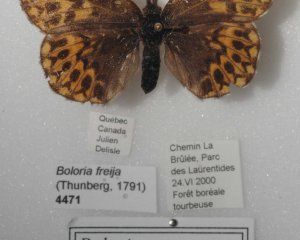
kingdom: Animalia
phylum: Arthropoda
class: Insecta
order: Lepidoptera
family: Nymphalidae
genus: Boloria
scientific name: Boloria freija
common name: Freija Fritillary
